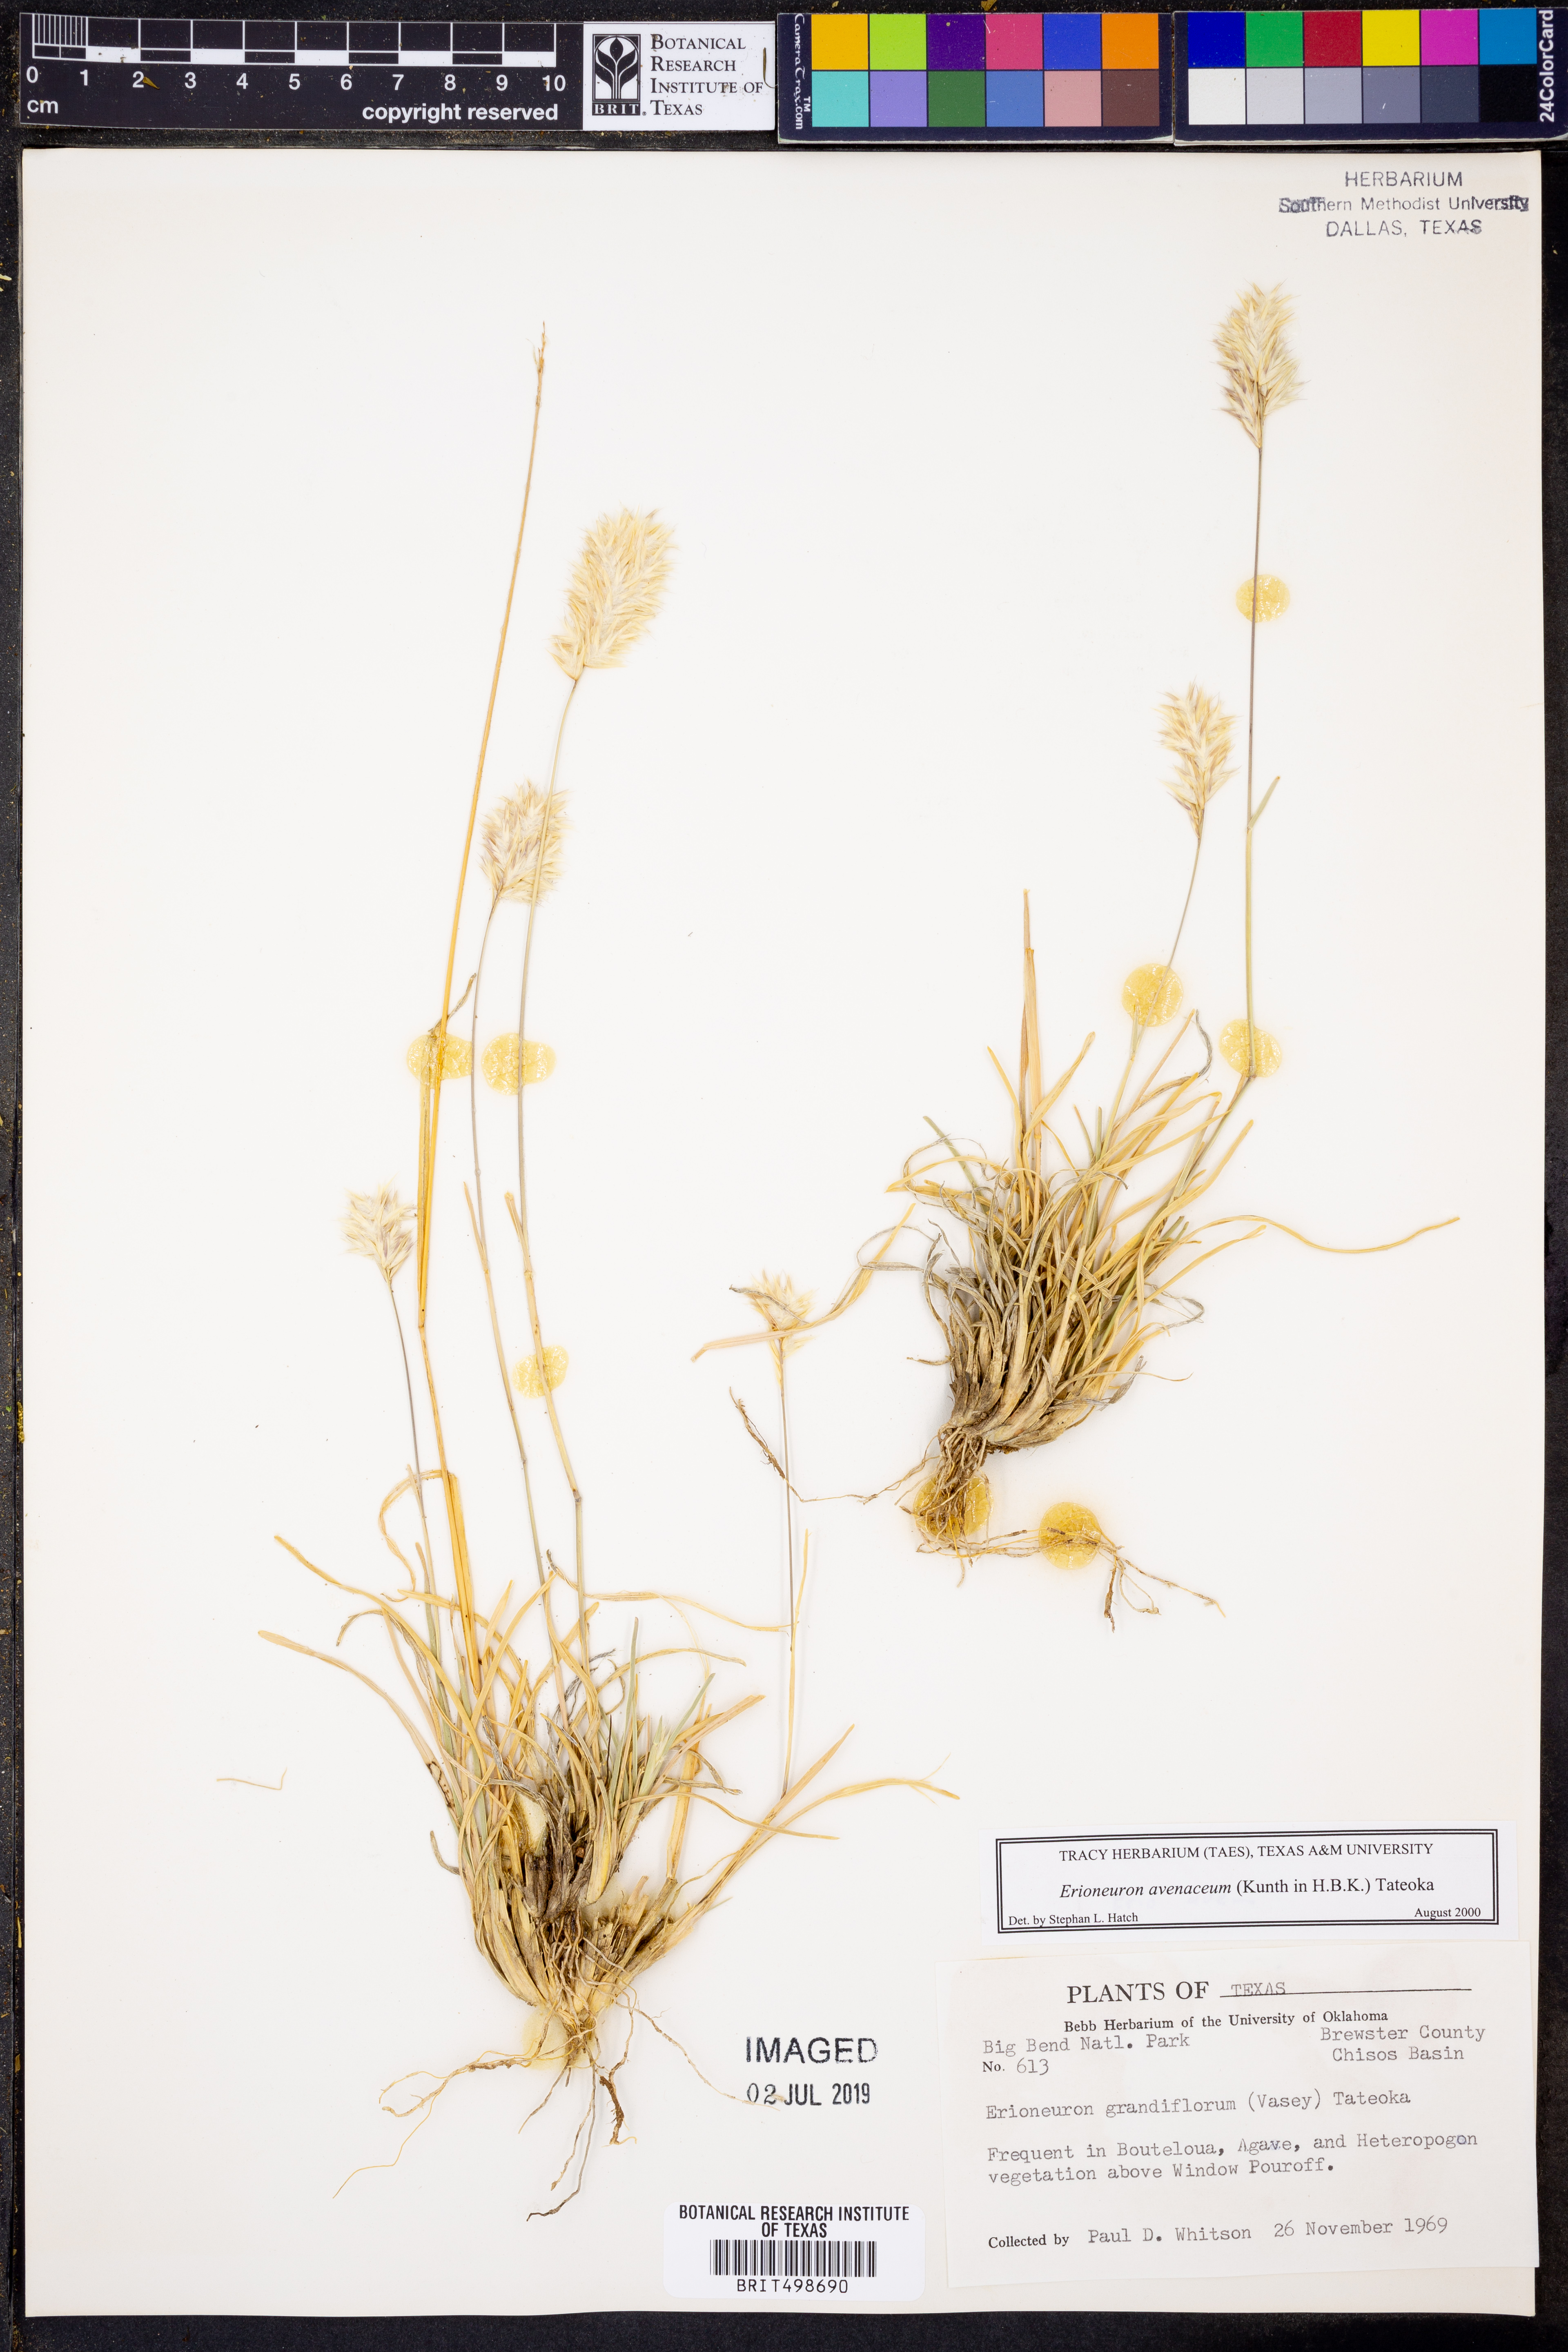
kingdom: Plantae
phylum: Tracheophyta
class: Liliopsida
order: Poales
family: Poaceae
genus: Erioneuron
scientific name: Erioneuron avenaceum
